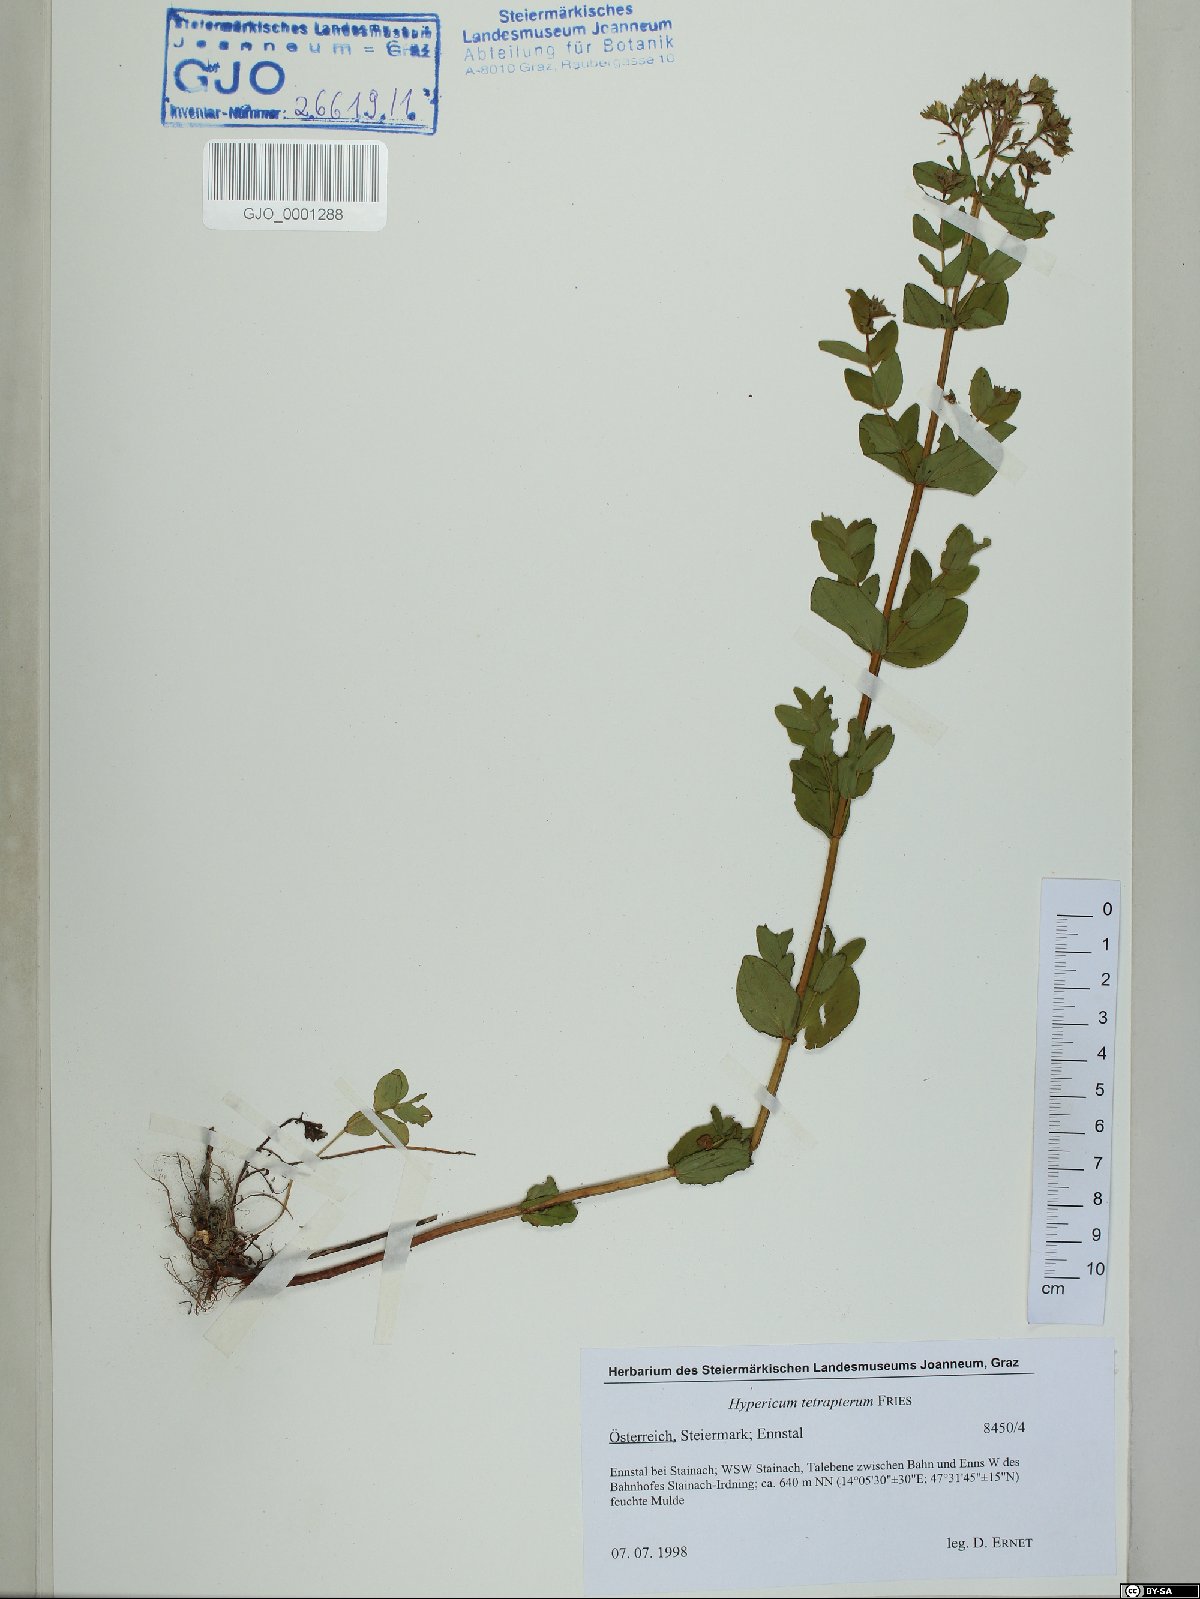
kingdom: Plantae
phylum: Tracheophyta
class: Magnoliopsida
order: Malpighiales
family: Hypericaceae
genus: Hypericum
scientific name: Hypericum tetrapterum
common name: Square-stalked st. john's-wort
